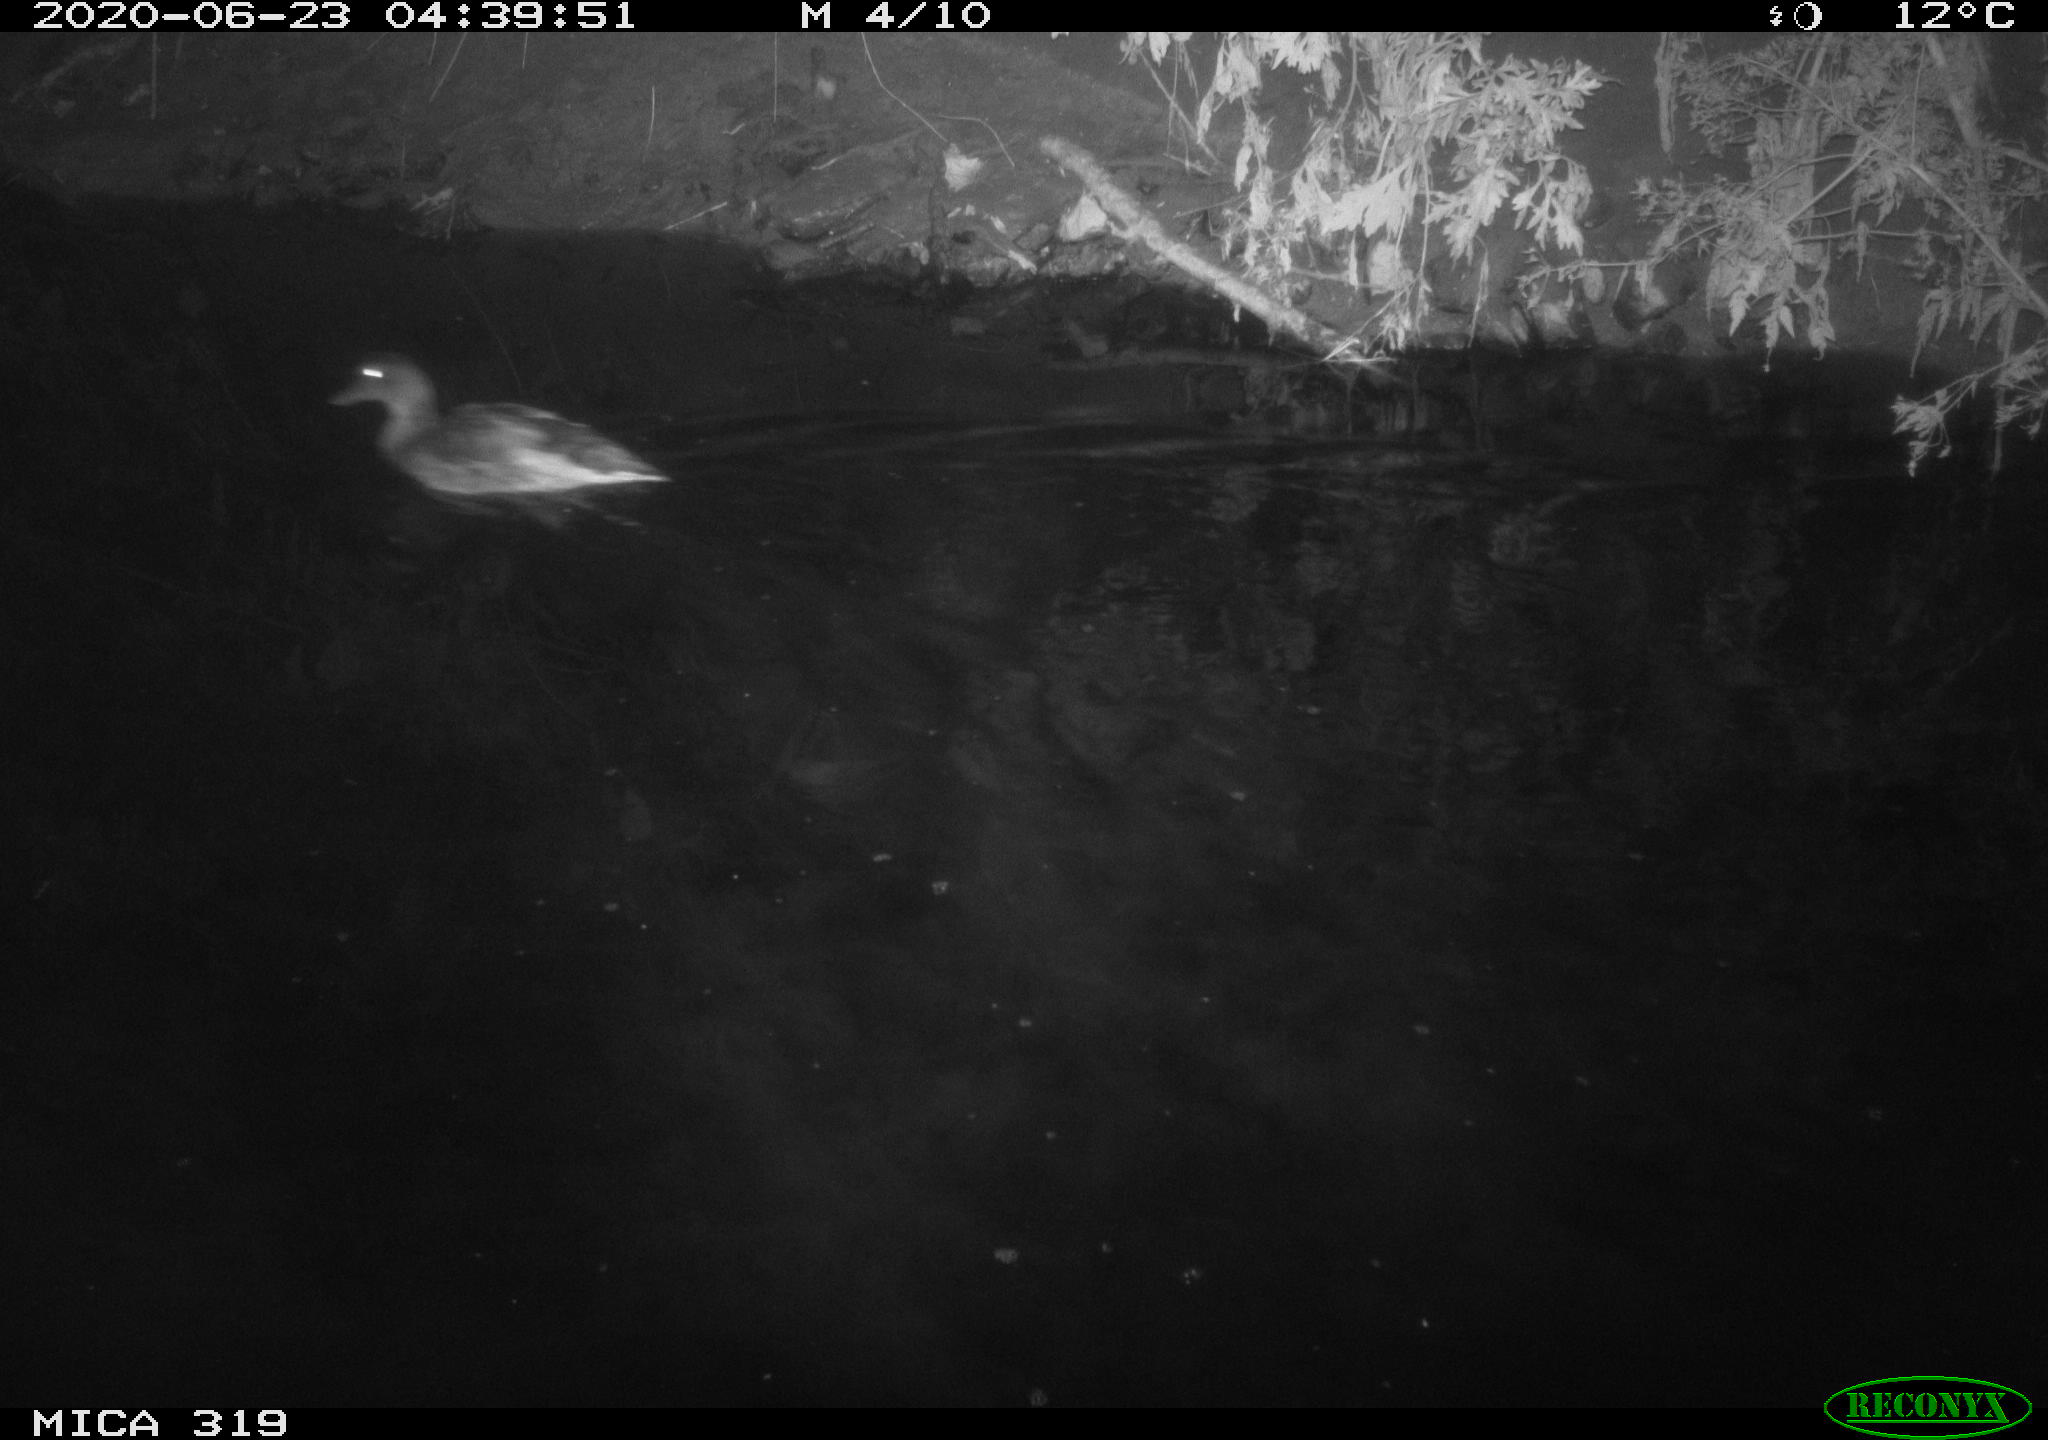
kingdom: Animalia
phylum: Chordata
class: Aves
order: Anseriformes
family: Anatidae
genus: Anas
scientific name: Anas platyrhynchos
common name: Mallard
